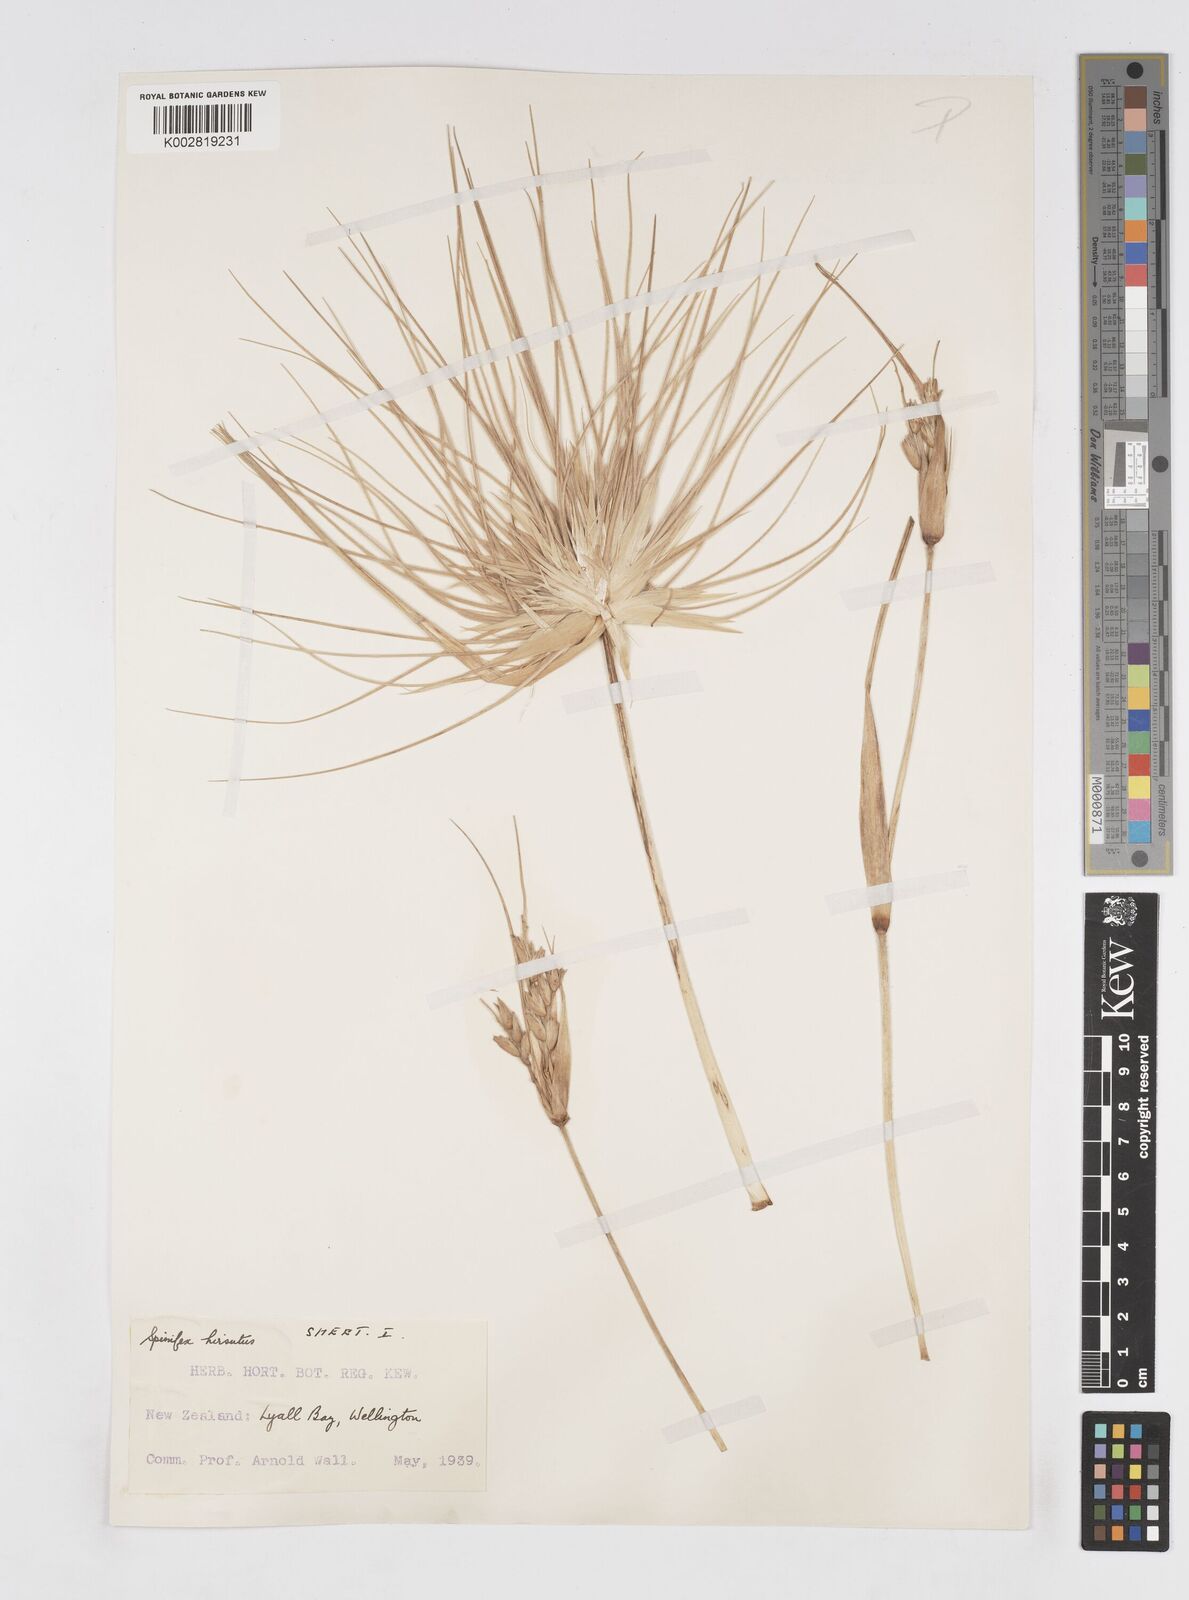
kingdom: Plantae
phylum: Tracheophyta
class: Liliopsida
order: Poales
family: Poaceae
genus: Spinifex
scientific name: Spinifex sericeus
